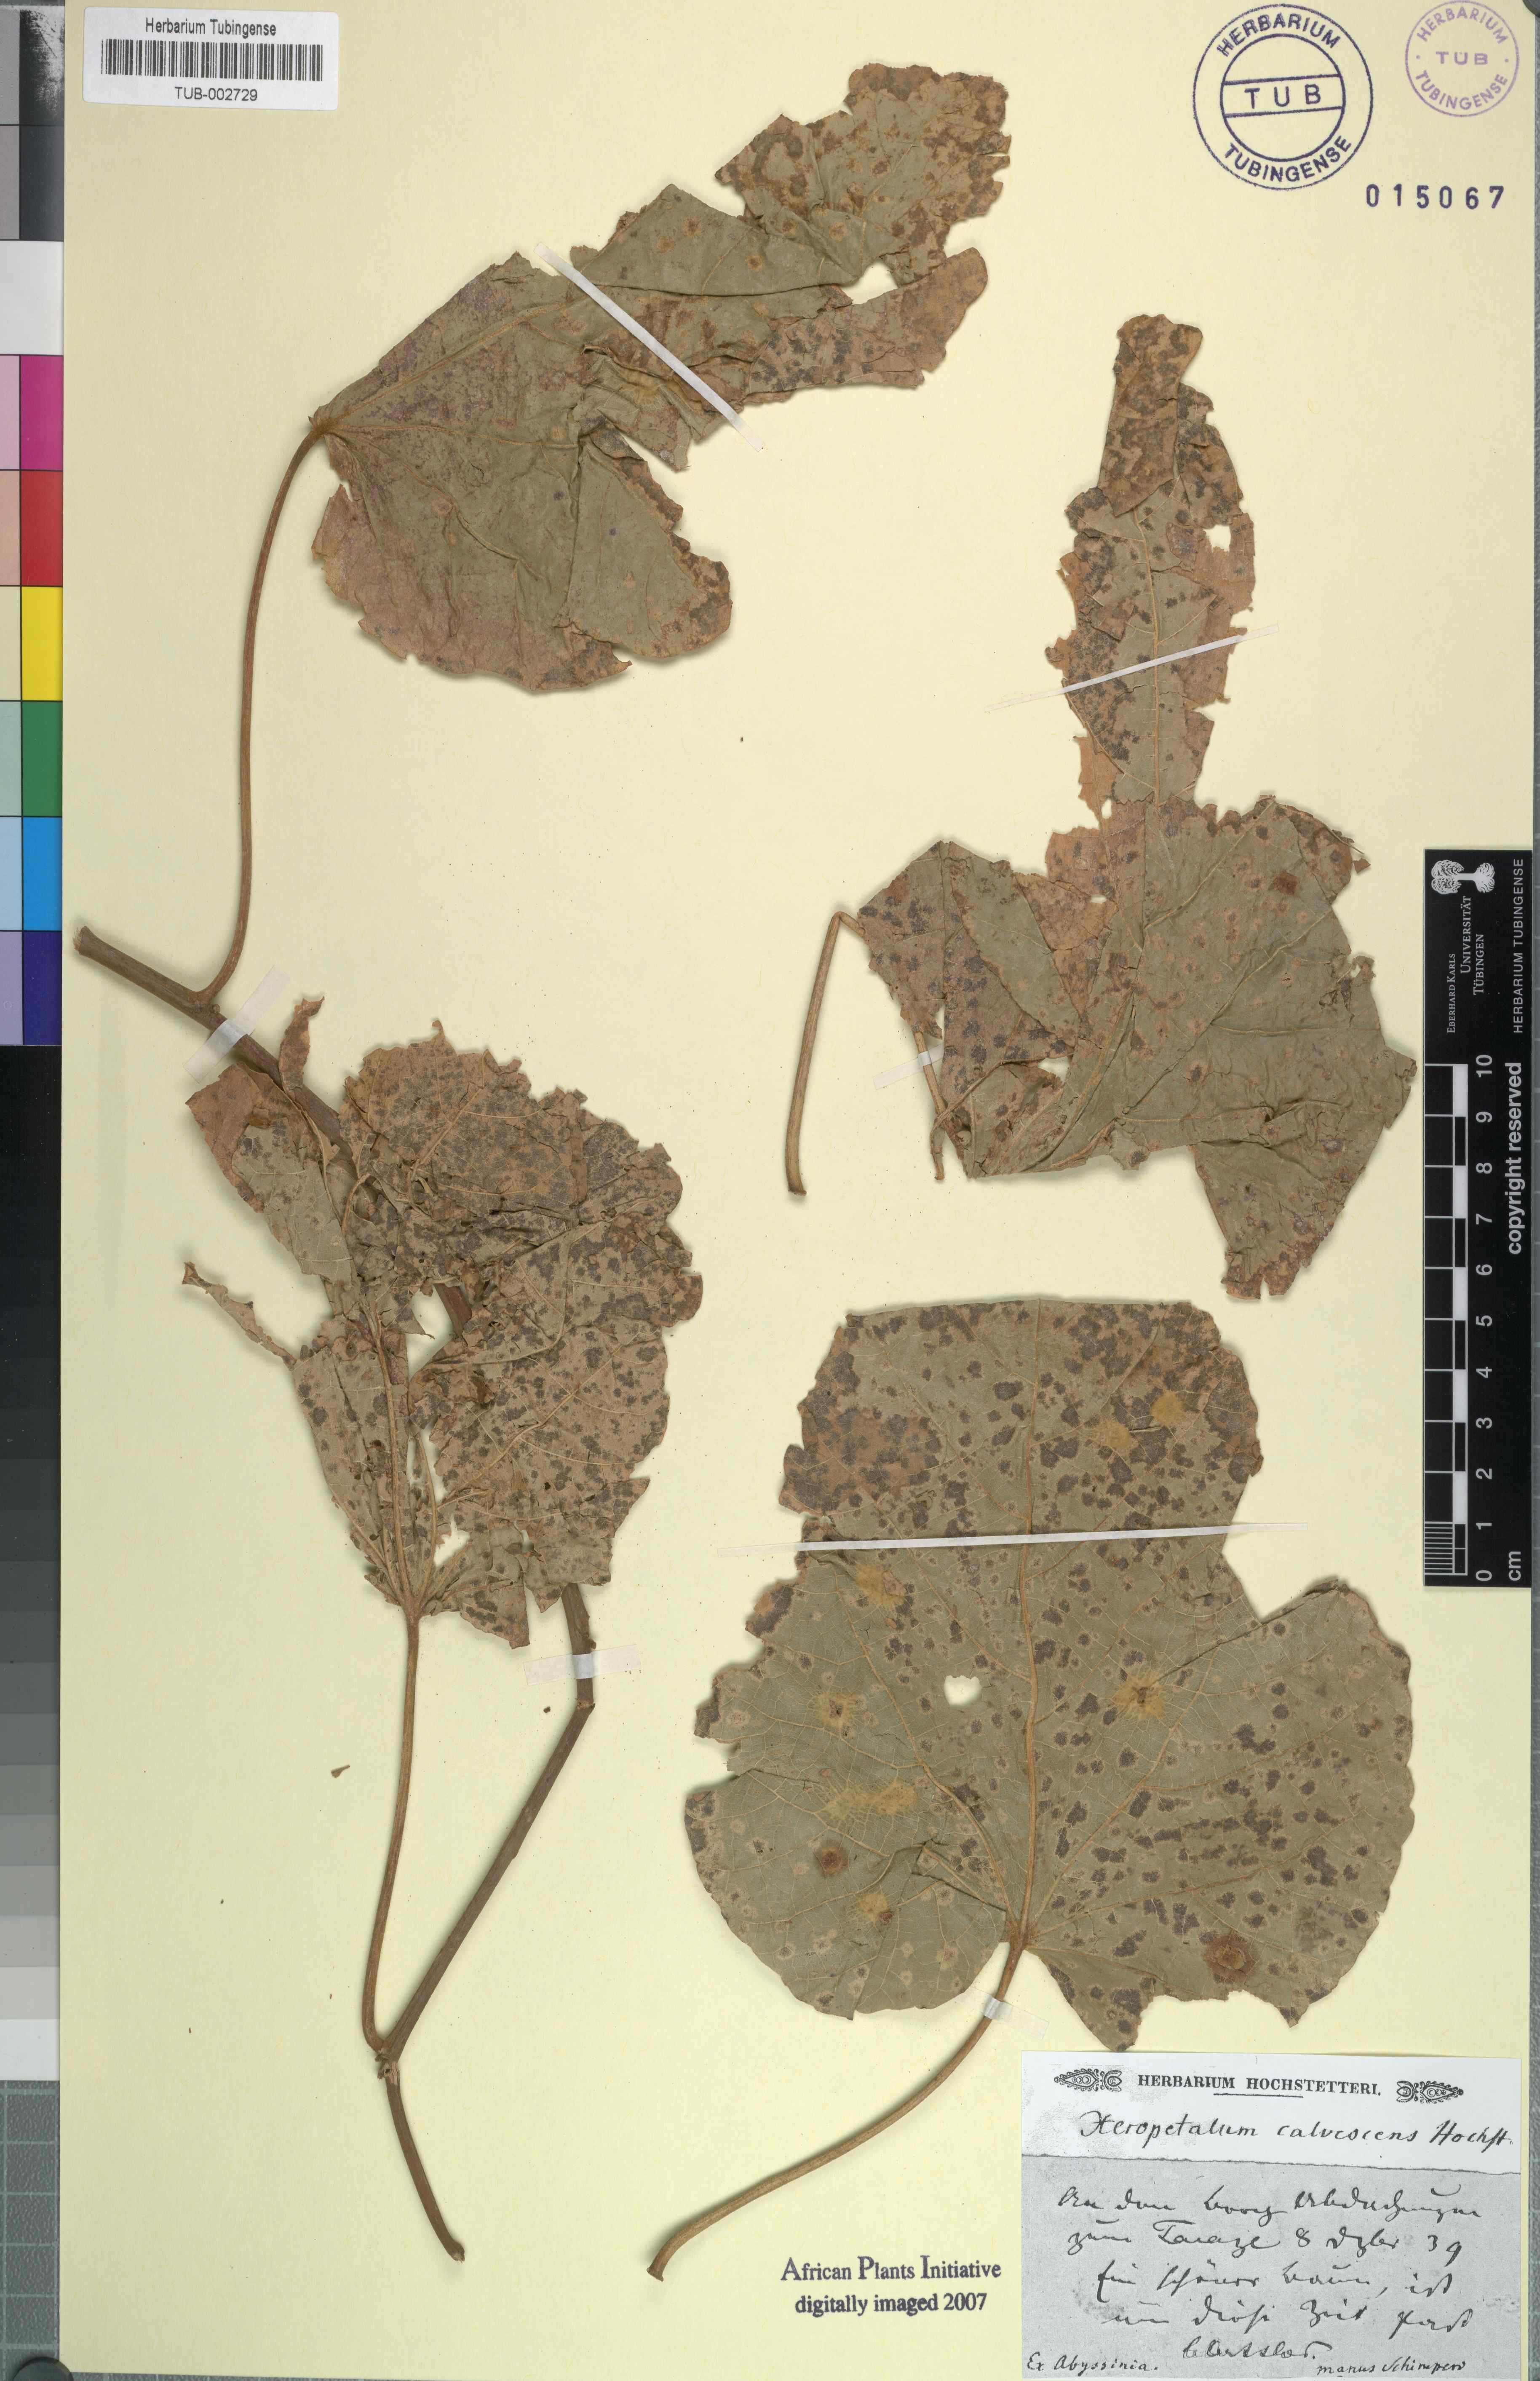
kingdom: Plantae
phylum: Tracheophyta
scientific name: Tracheophyta
